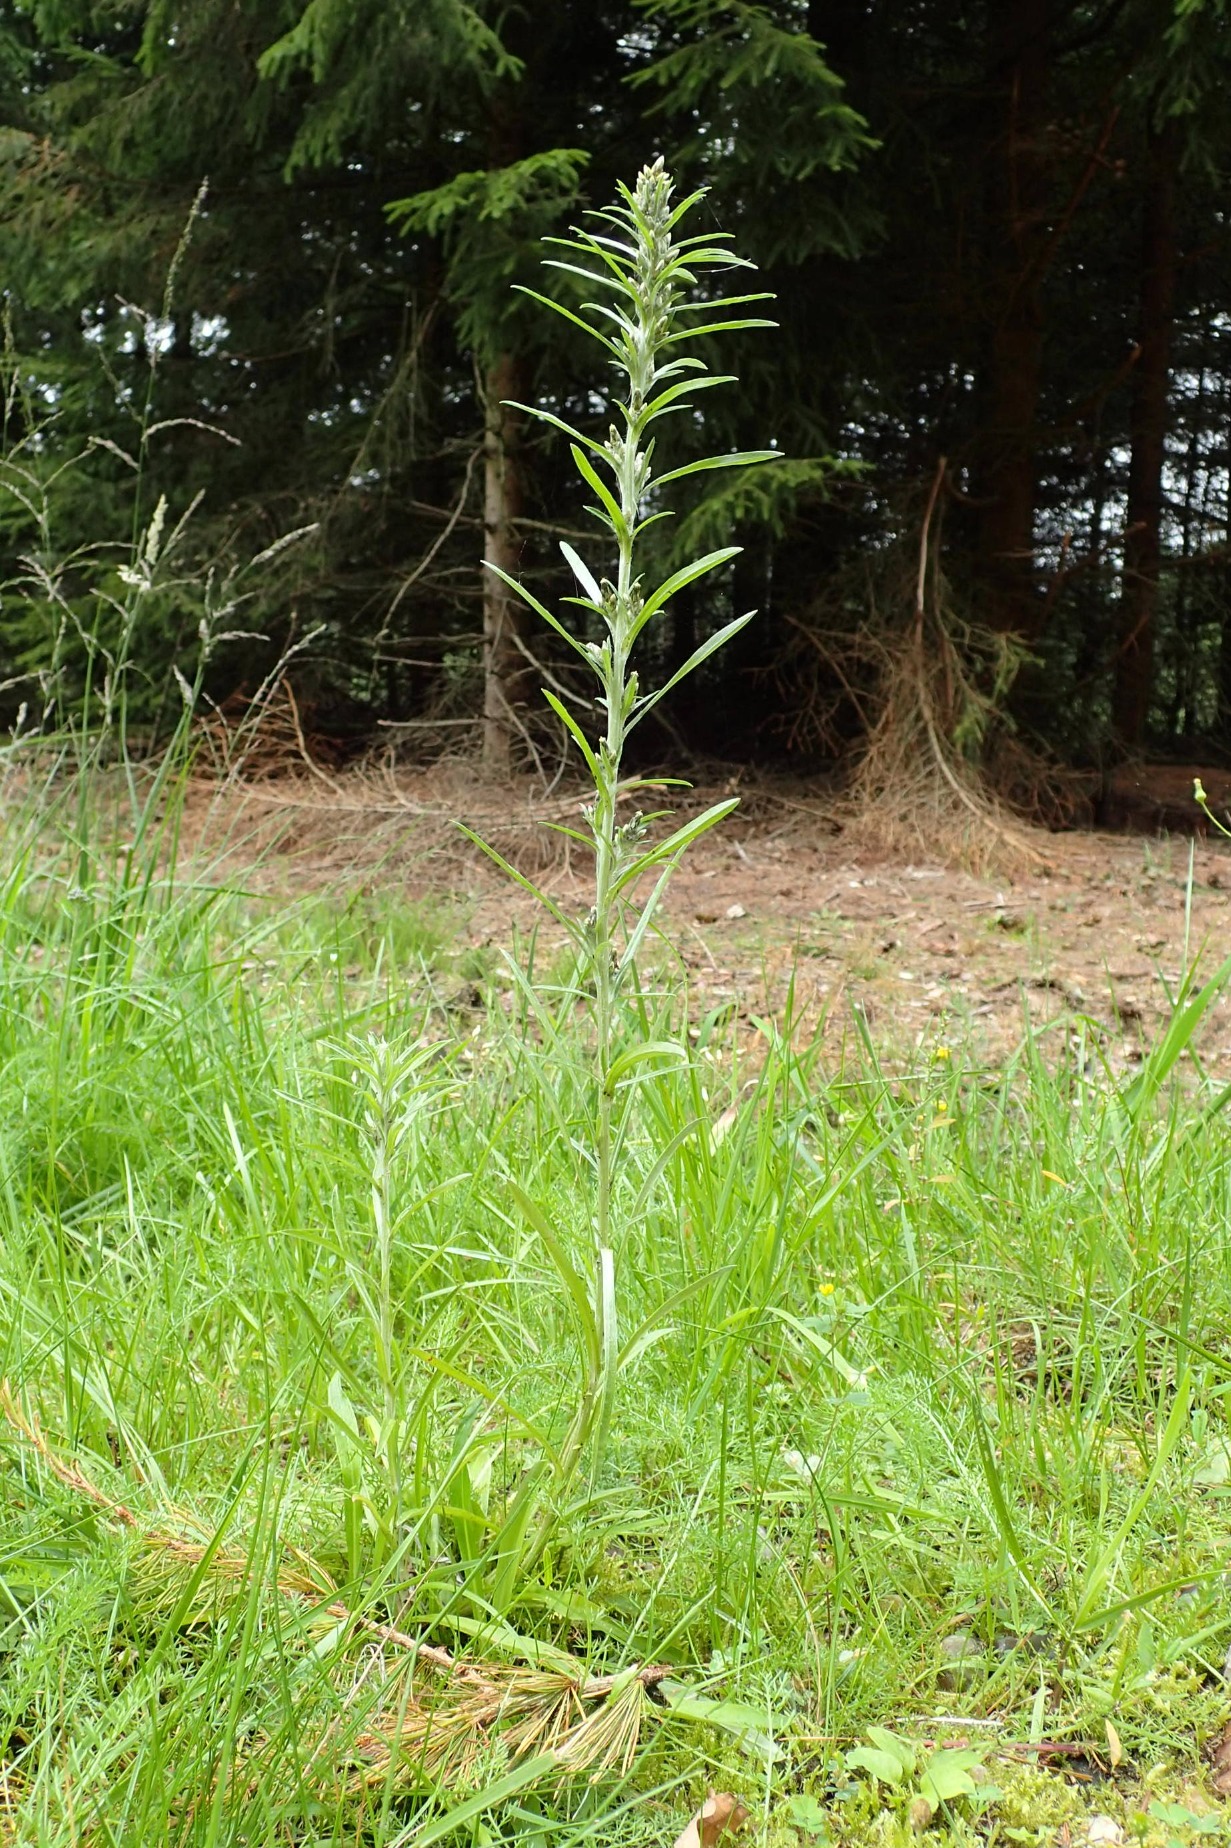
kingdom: Plantae
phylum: Tracheophyta
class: Magnoliopsida
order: Asterales
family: Asteraceae
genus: Omalotheca
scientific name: Omalotheca sylvatica
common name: Rank evighedsblomst
